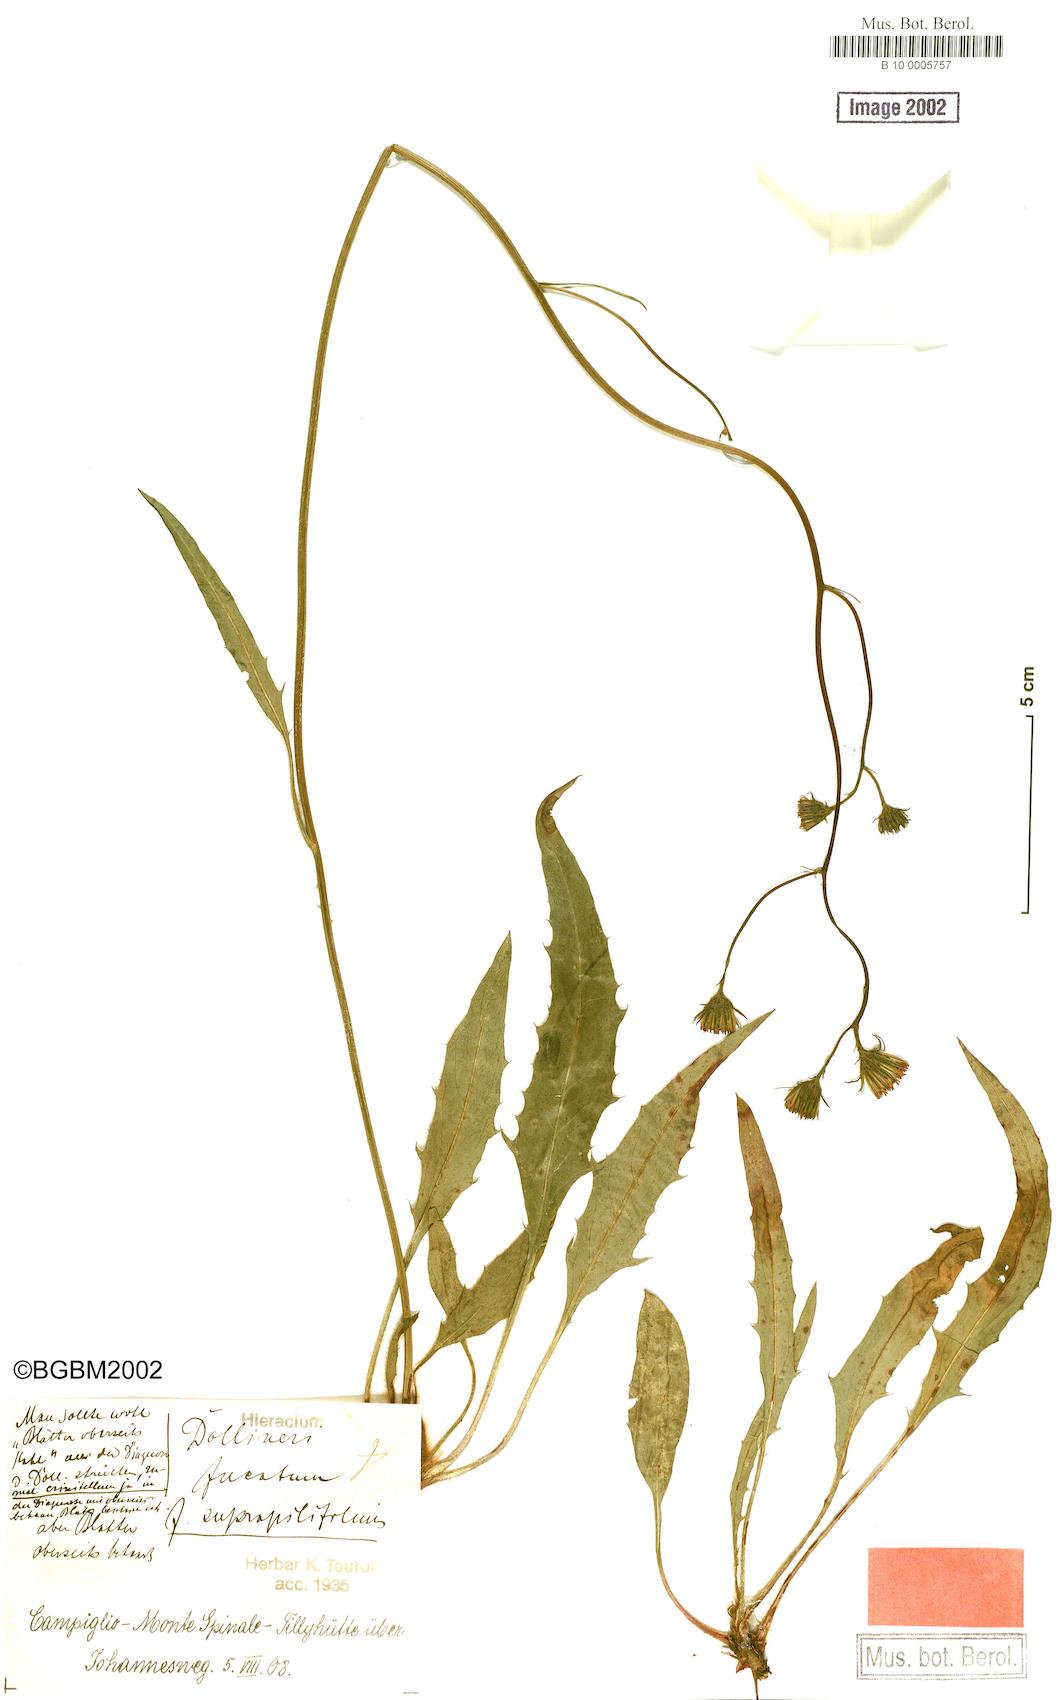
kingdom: Plantae
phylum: Tracheophyta
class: Magnoliopsida
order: Asterales
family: Asteraceae
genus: Hieracium
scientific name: Hieracium dollineri
